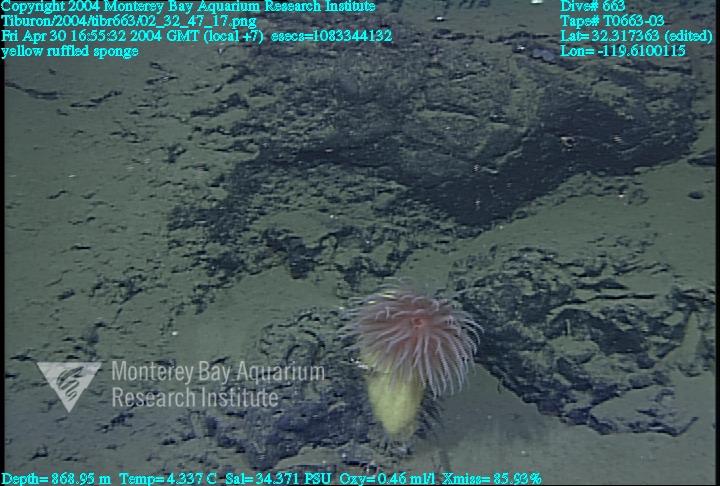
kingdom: Animalia
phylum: Porifera
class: Hexactinellida
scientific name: Hexactinellida
